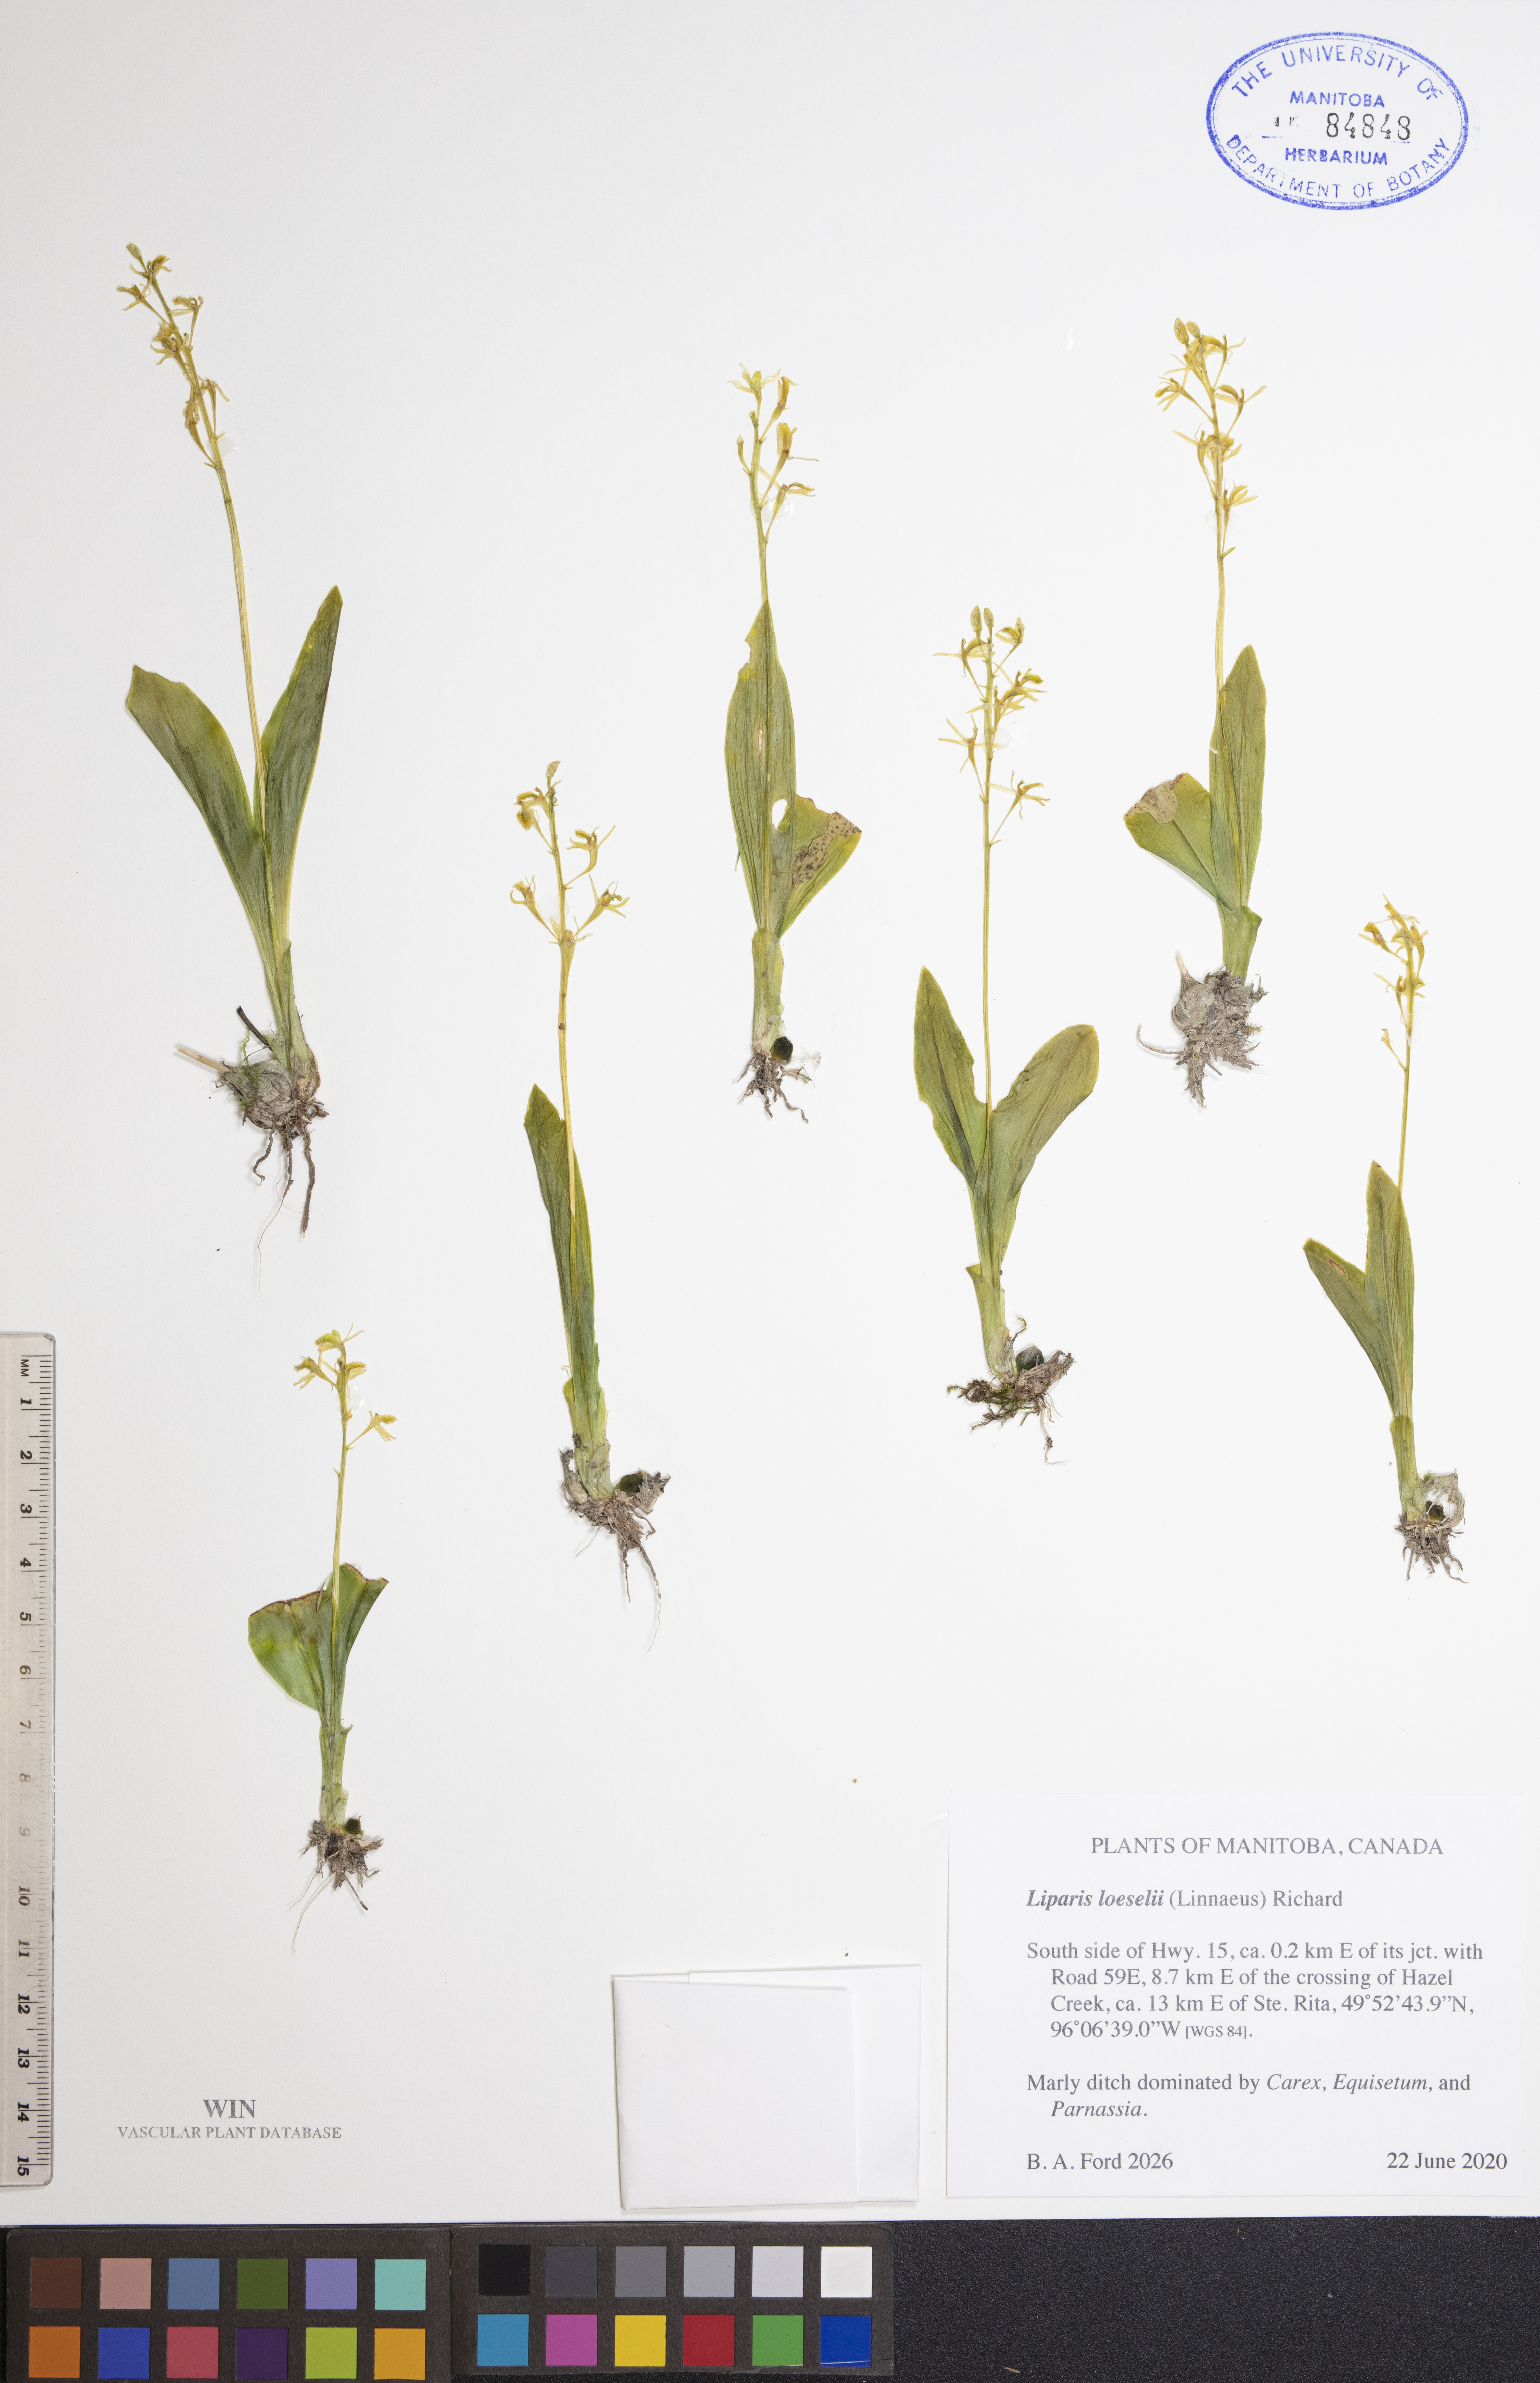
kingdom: Animalia
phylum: Arthropoda
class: Insecta
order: Coleoptera
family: Curculionidae
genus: Liparis
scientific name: Liparis loeselii
